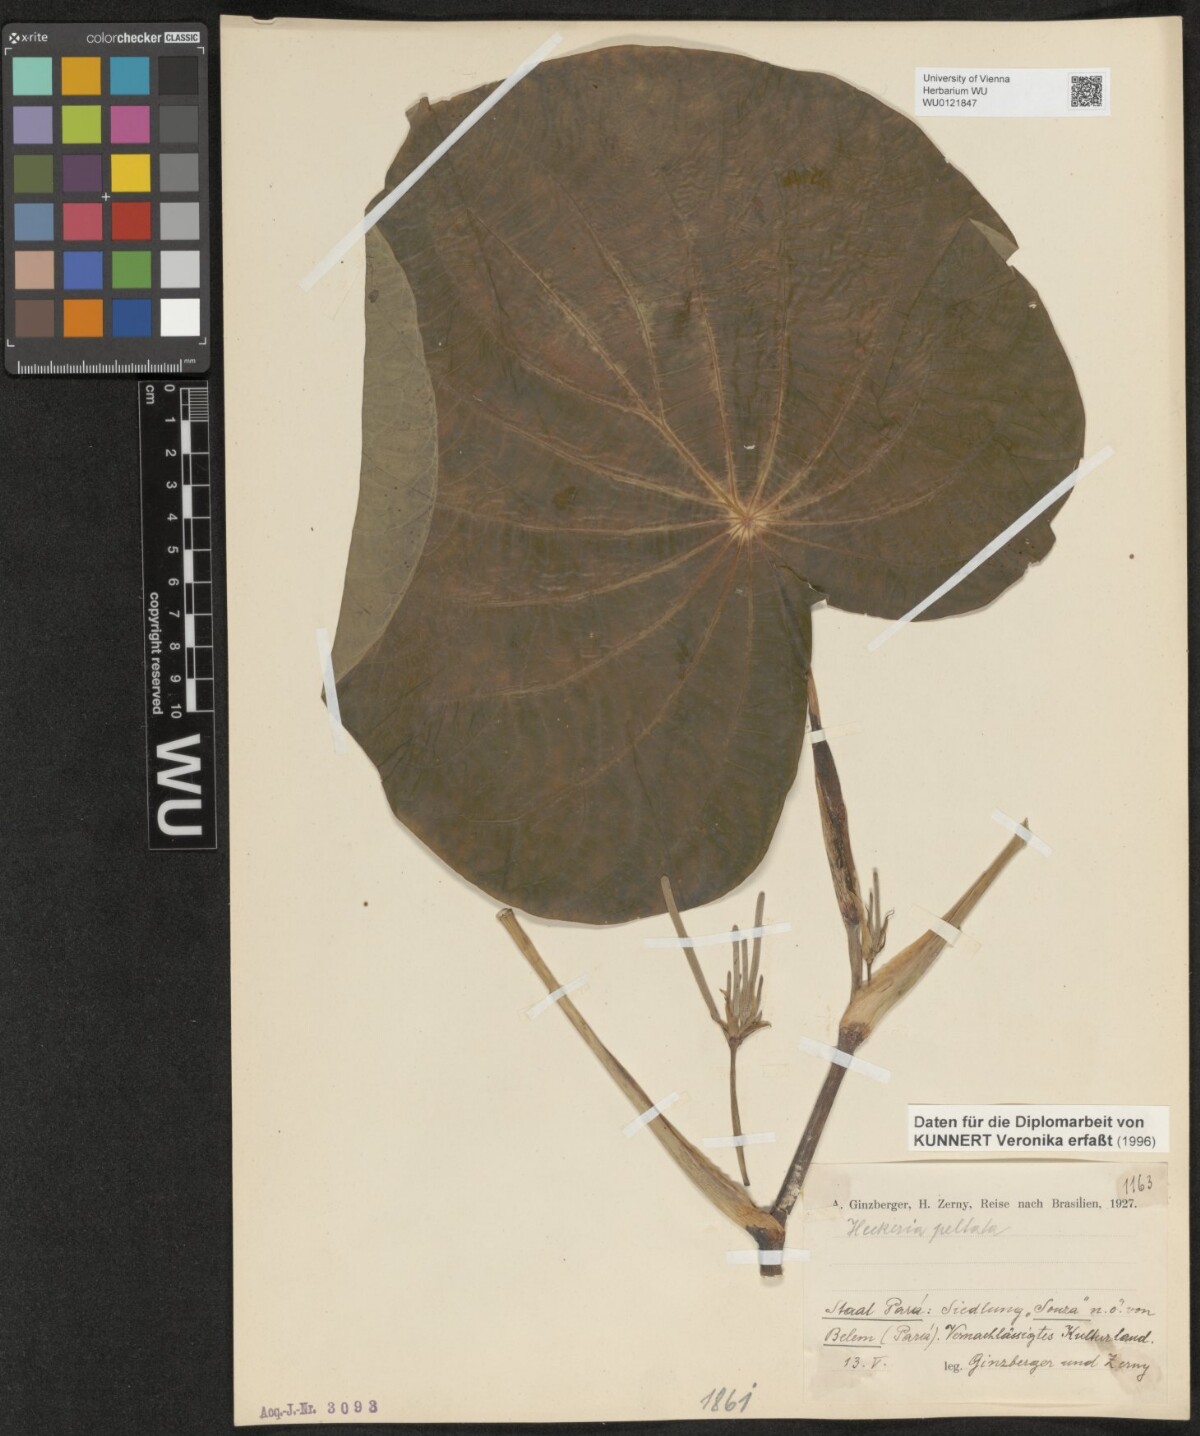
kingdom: Plantae
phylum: Tracheophyta
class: Magnoliopsida
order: Piperales
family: Piperaceae
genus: Piper
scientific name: Piper peltatum
